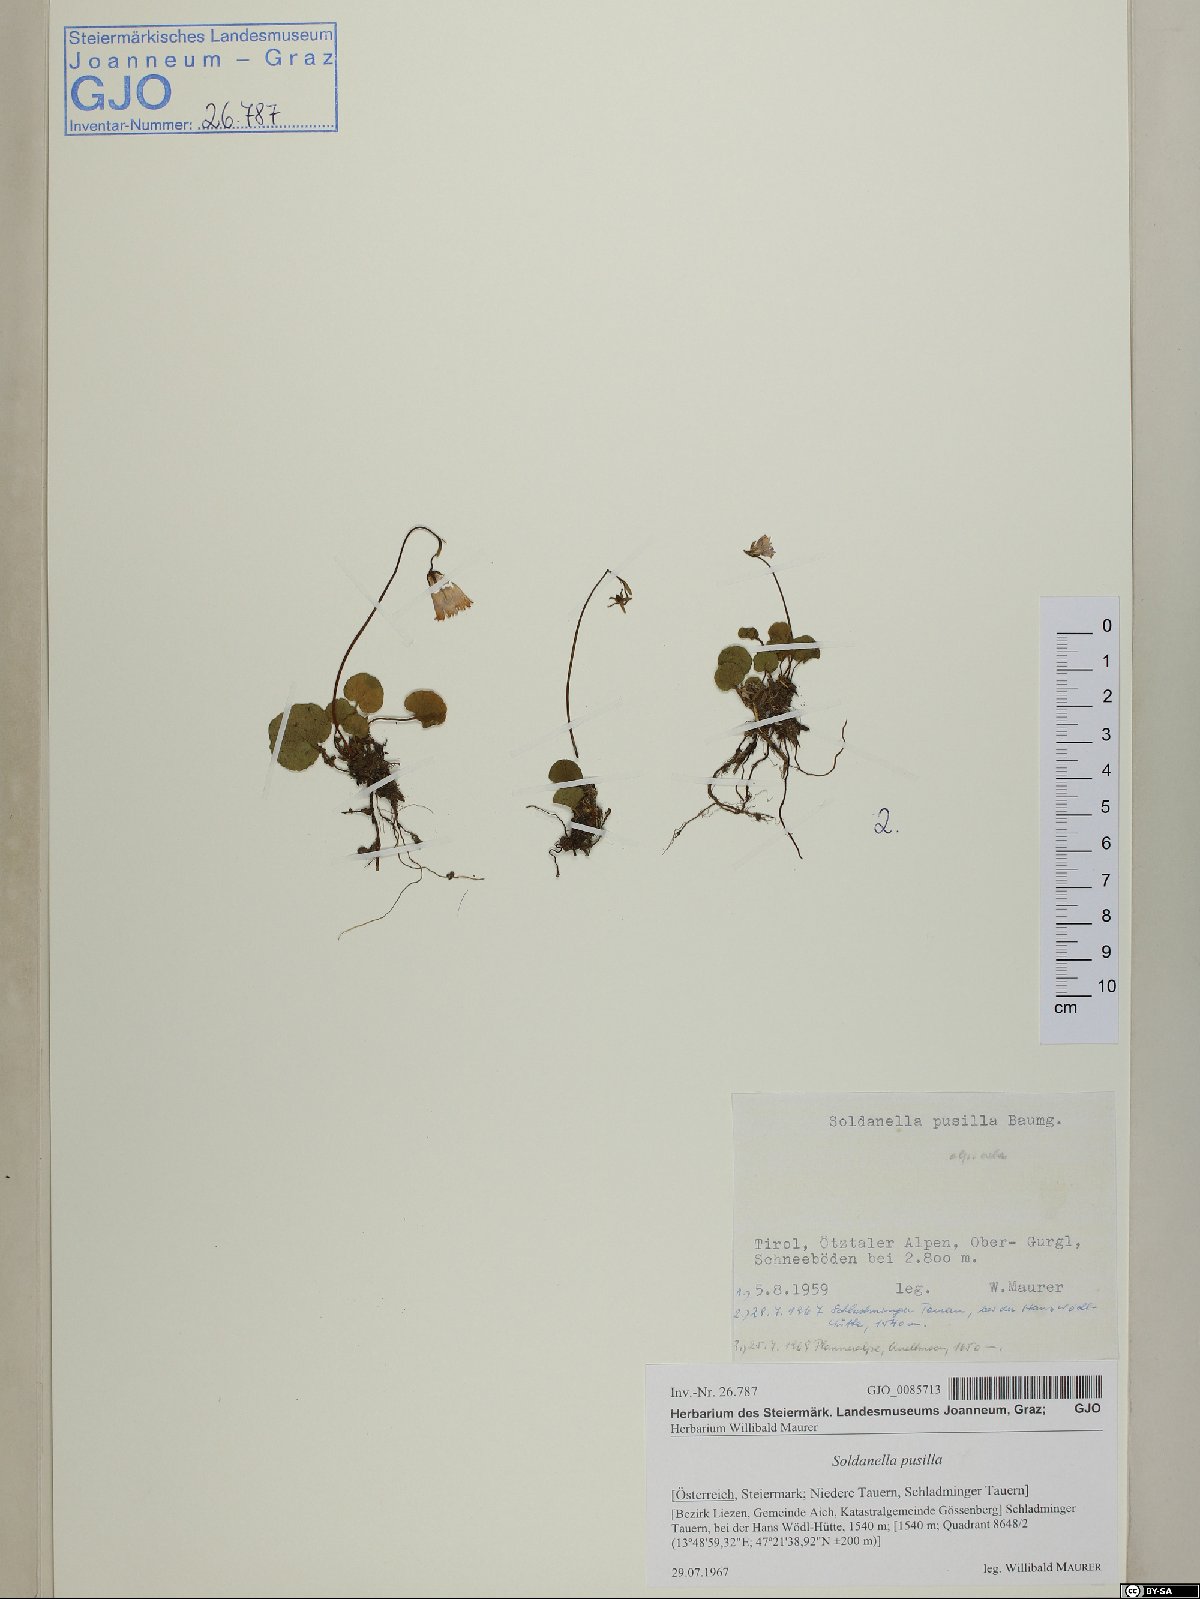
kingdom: Plantae
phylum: Tracheophyta
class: Magnoliopsida
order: Ericales
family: Primulaceae
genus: Soldanella
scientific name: Soldanella pusilla
